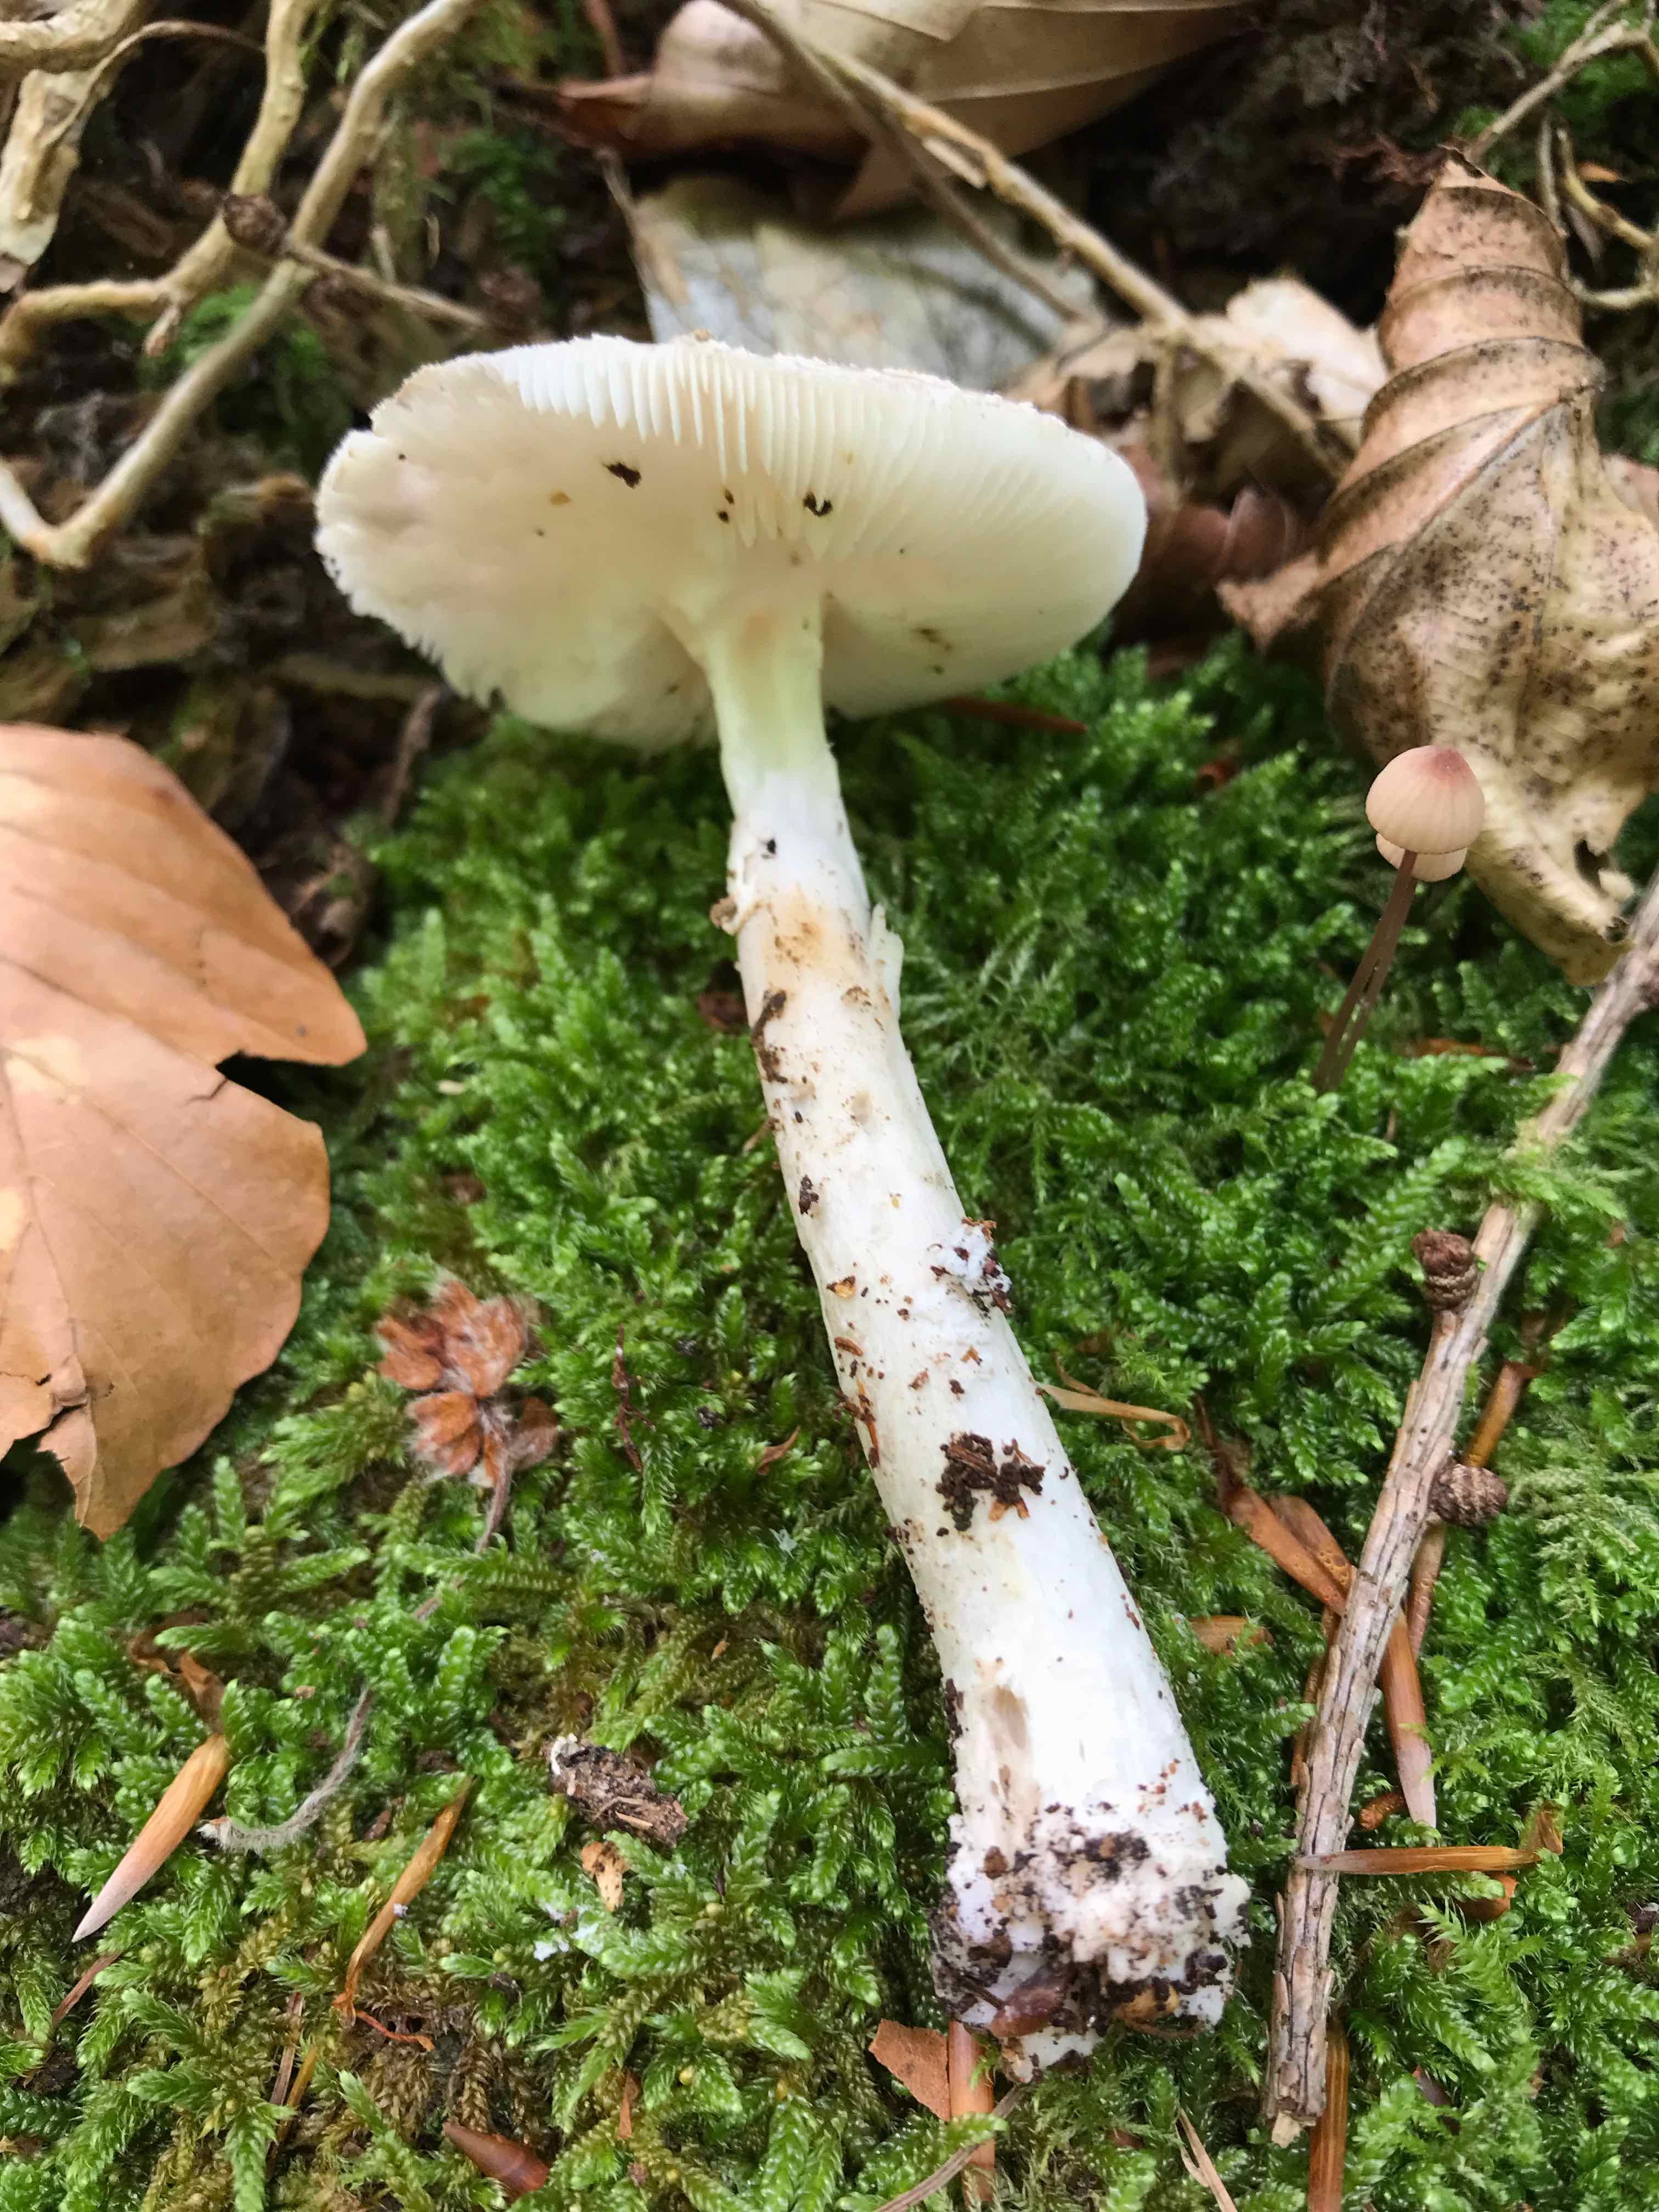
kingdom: Fungi
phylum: Basidiomycota
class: Agaricomycetes
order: Agaricales
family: Amanitaceae
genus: Amanita
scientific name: Amanita
